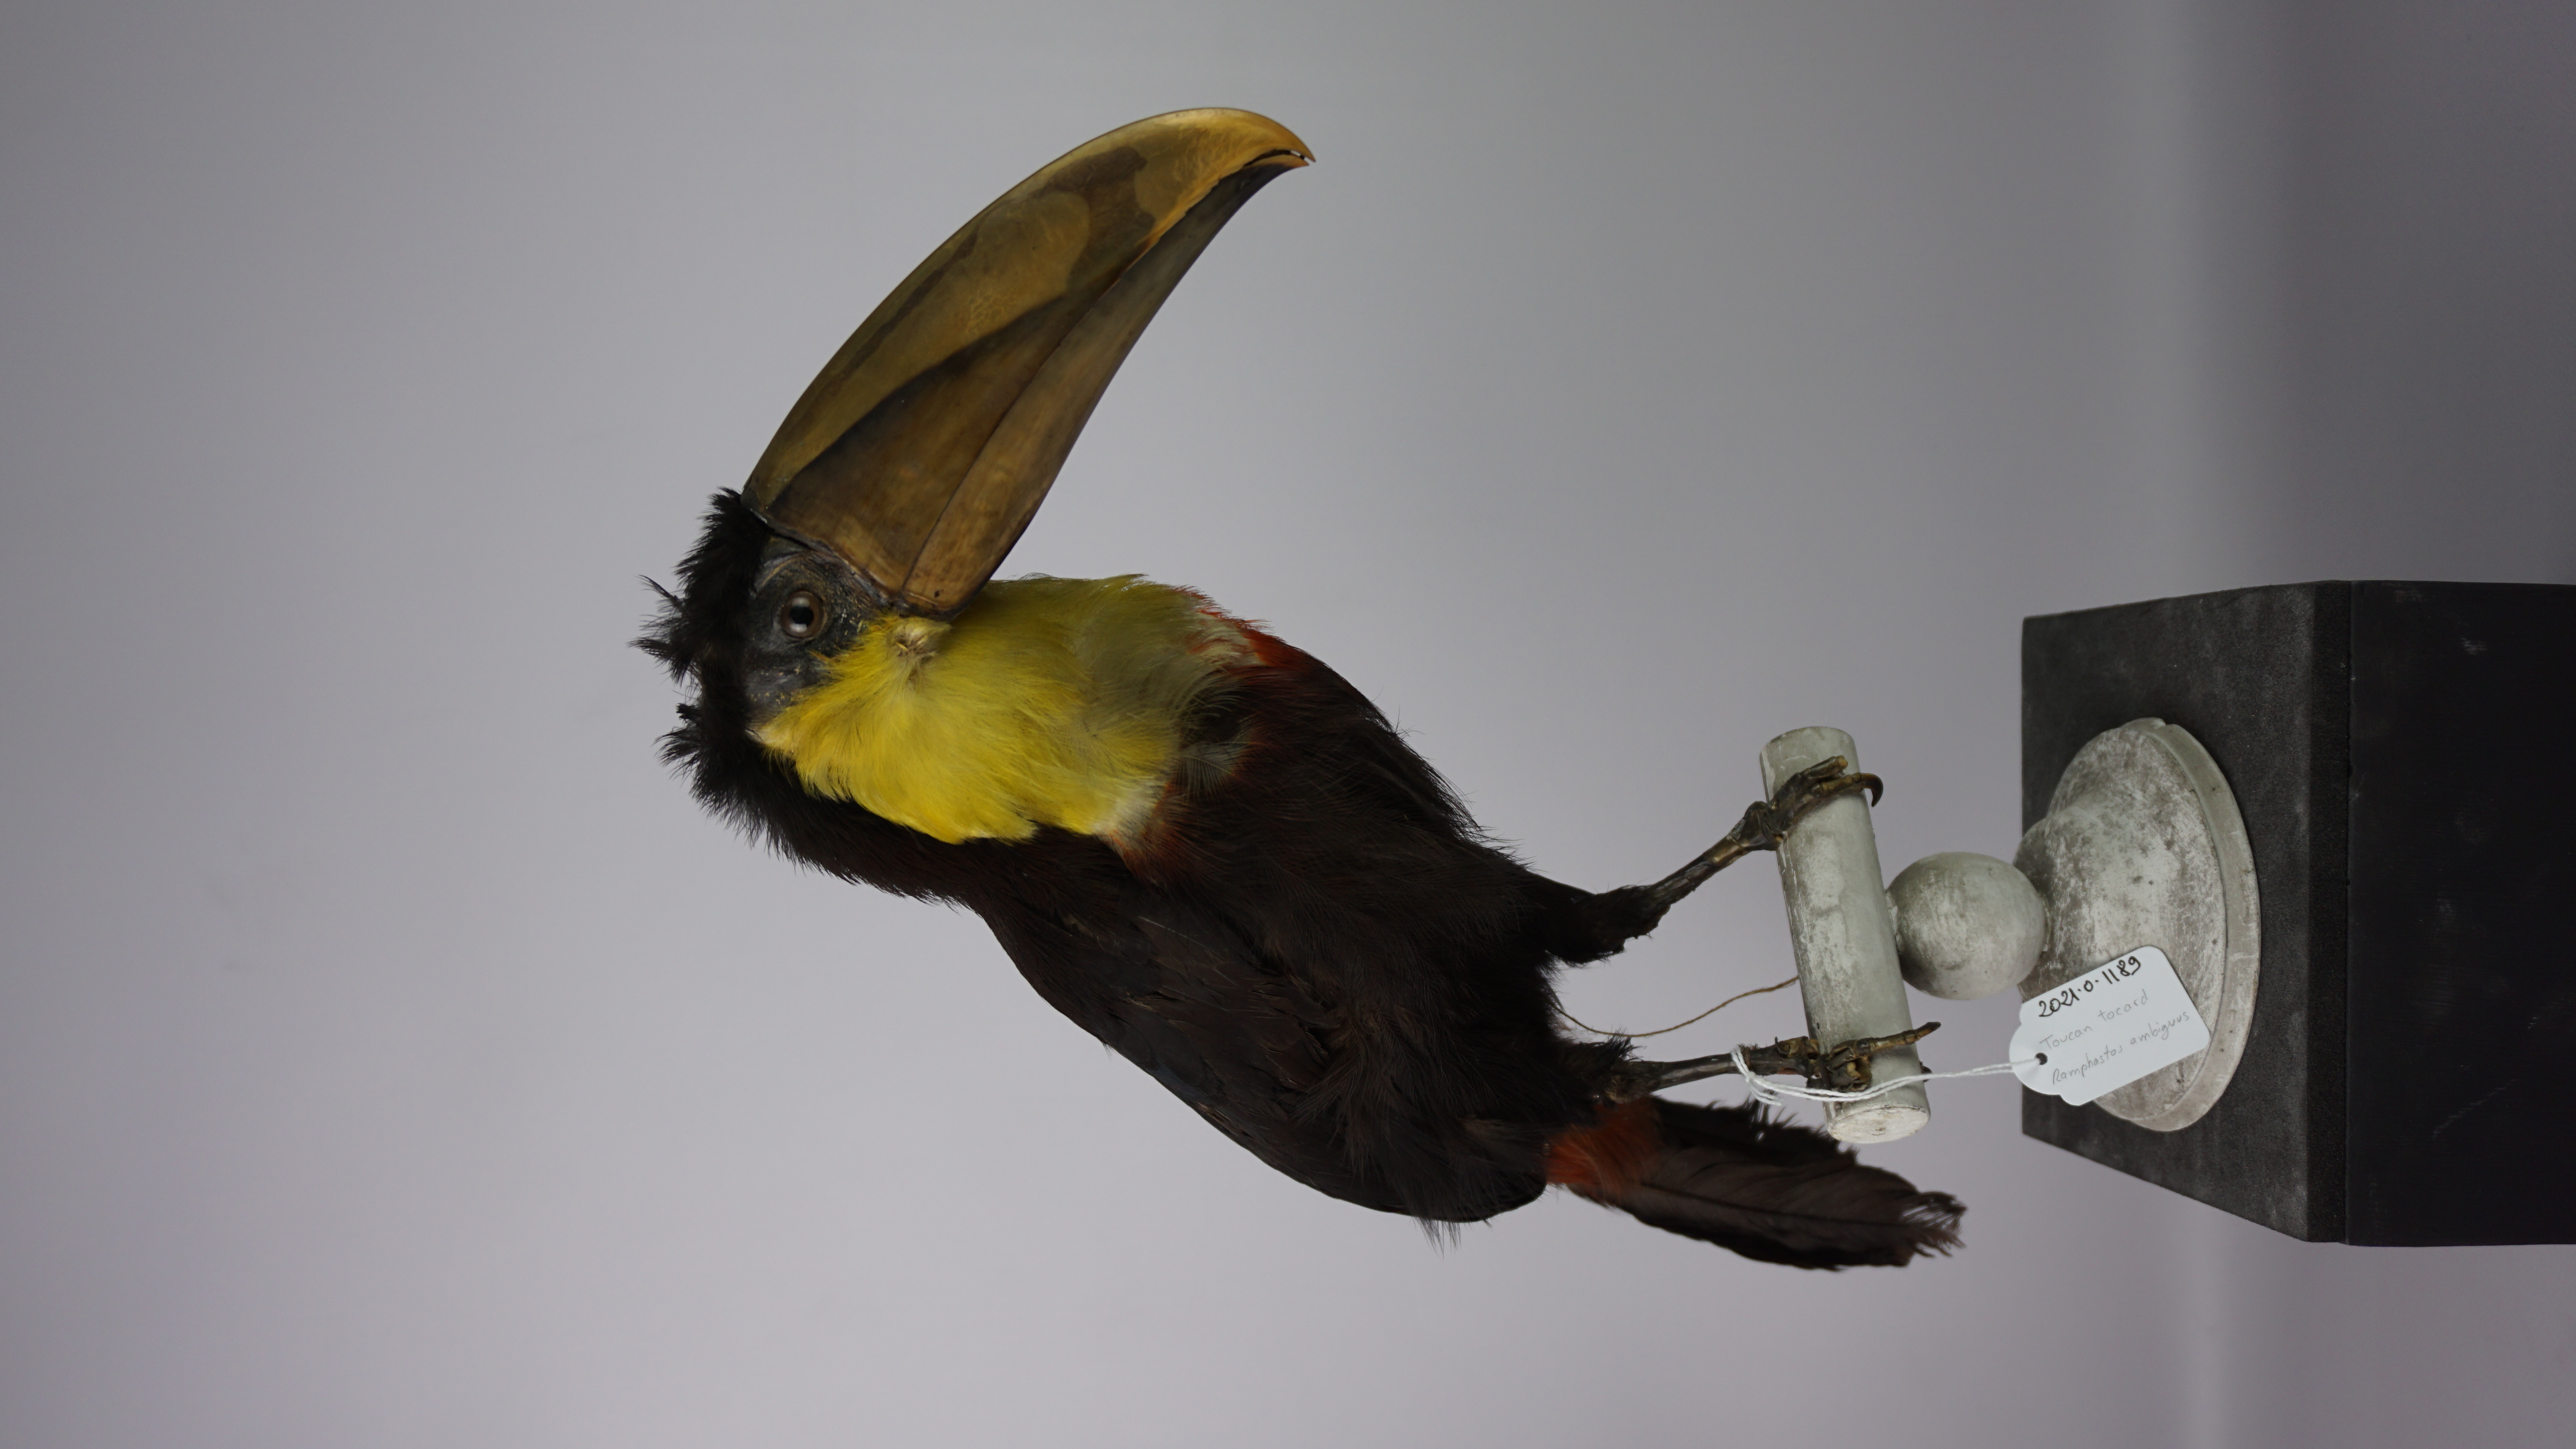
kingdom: Animalia
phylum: Chordata
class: Aves
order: Piciformes
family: Ramphastidae
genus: Ramphastos
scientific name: Ramphastos ambiguus
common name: Yellow-throated toucan
